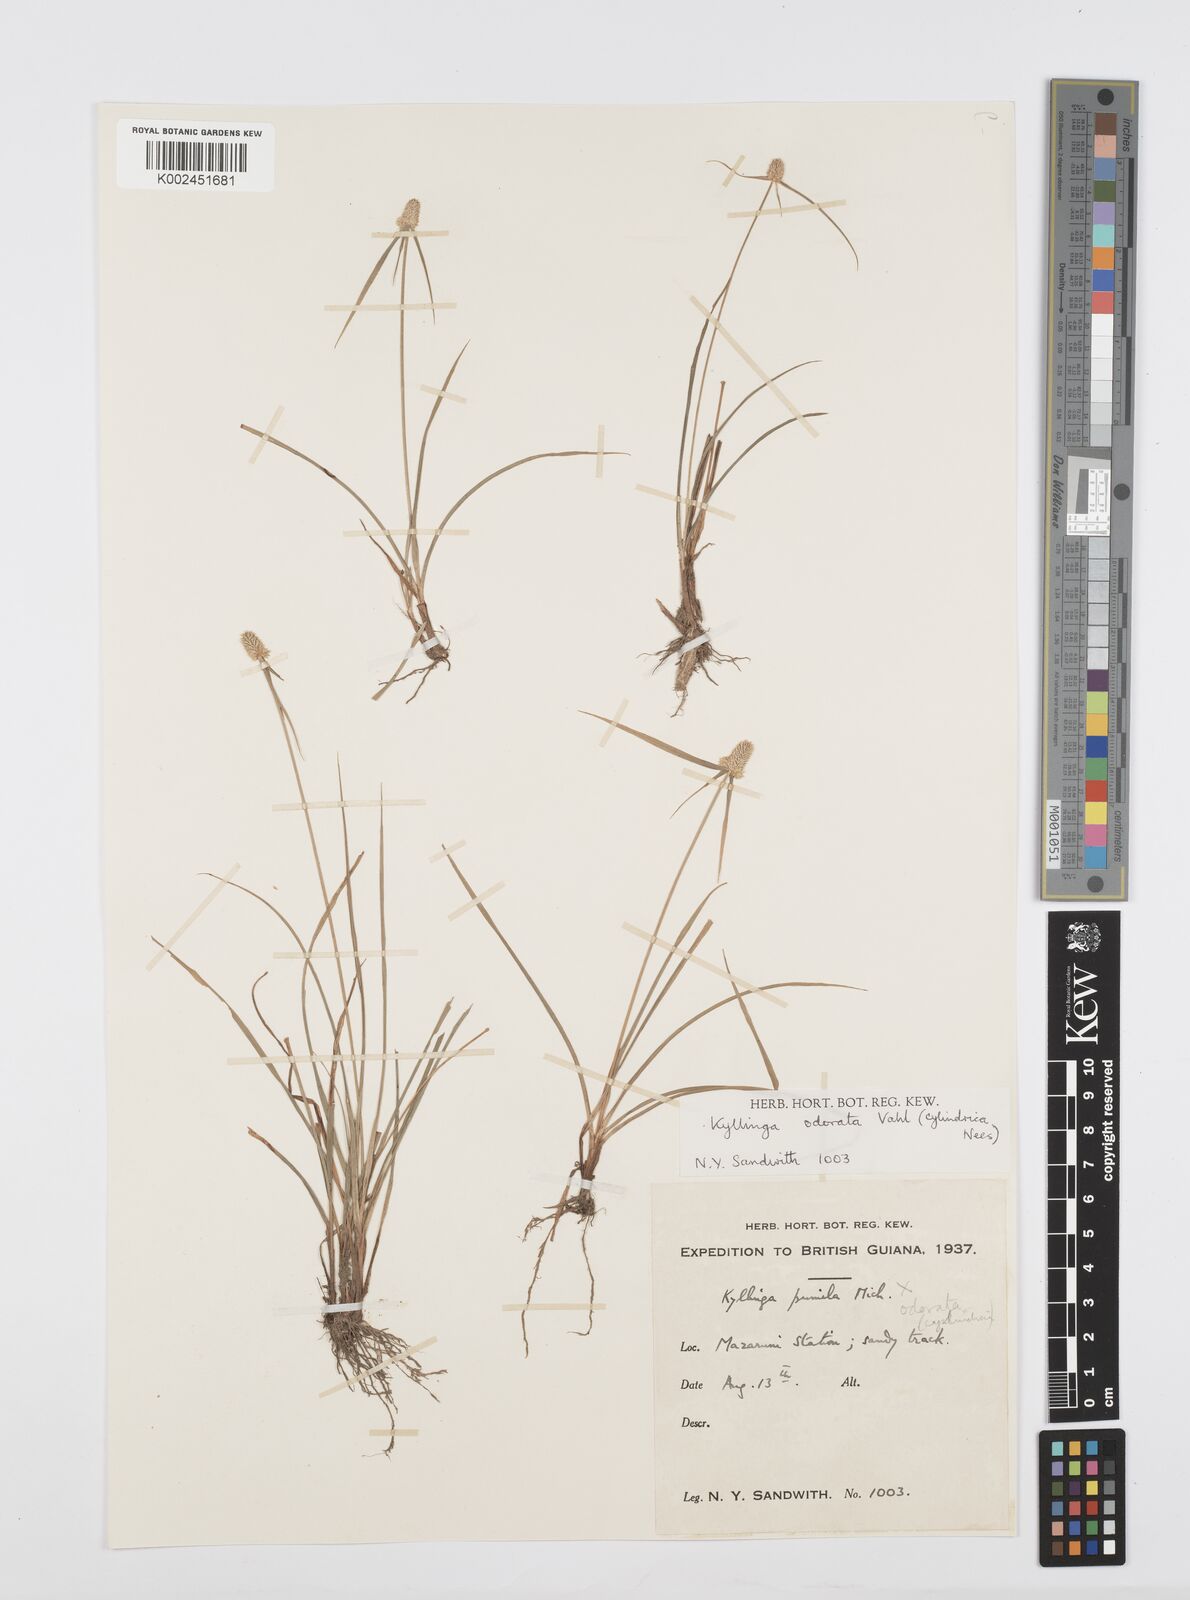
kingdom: Plantae
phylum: Tracheophyta
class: Liliopsida
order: Poales
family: Cyperaceae
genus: Cyperus
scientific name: Cyperus
